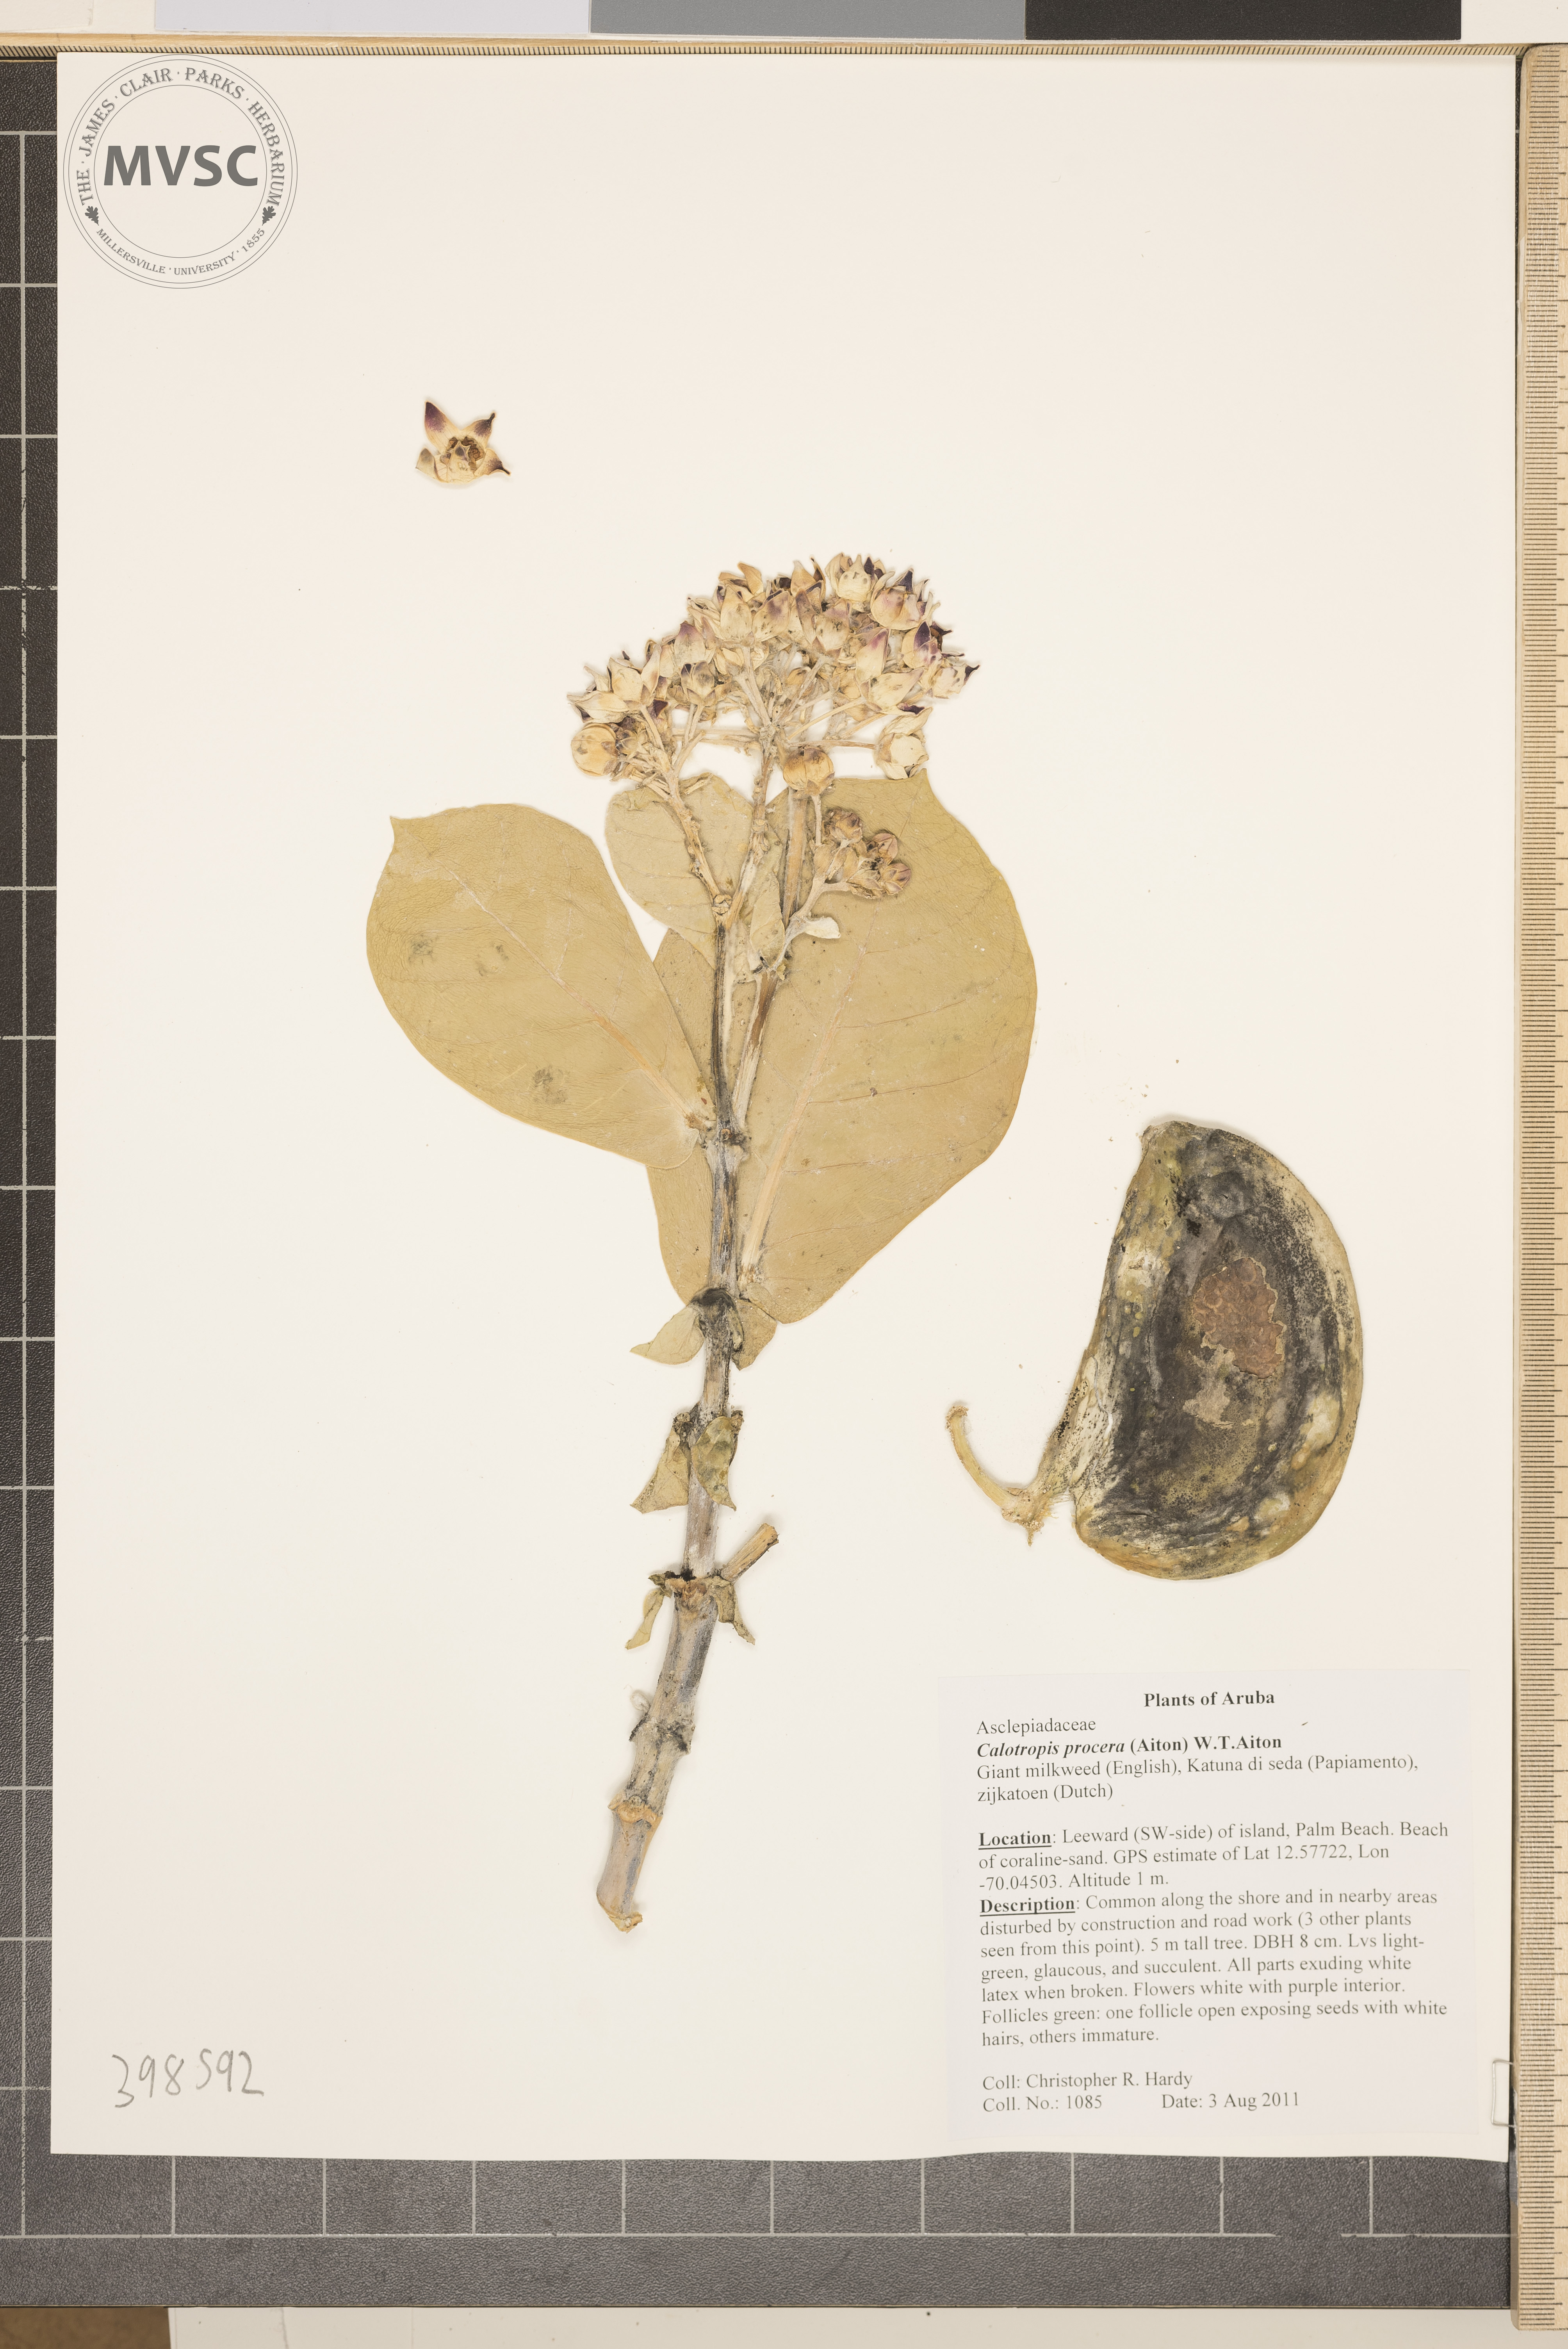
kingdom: Plantae
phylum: Tracheophyta
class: Magnoliopsida
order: Gentianales
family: Apocynaceae
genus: Calotropis
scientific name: Calotropis procera
